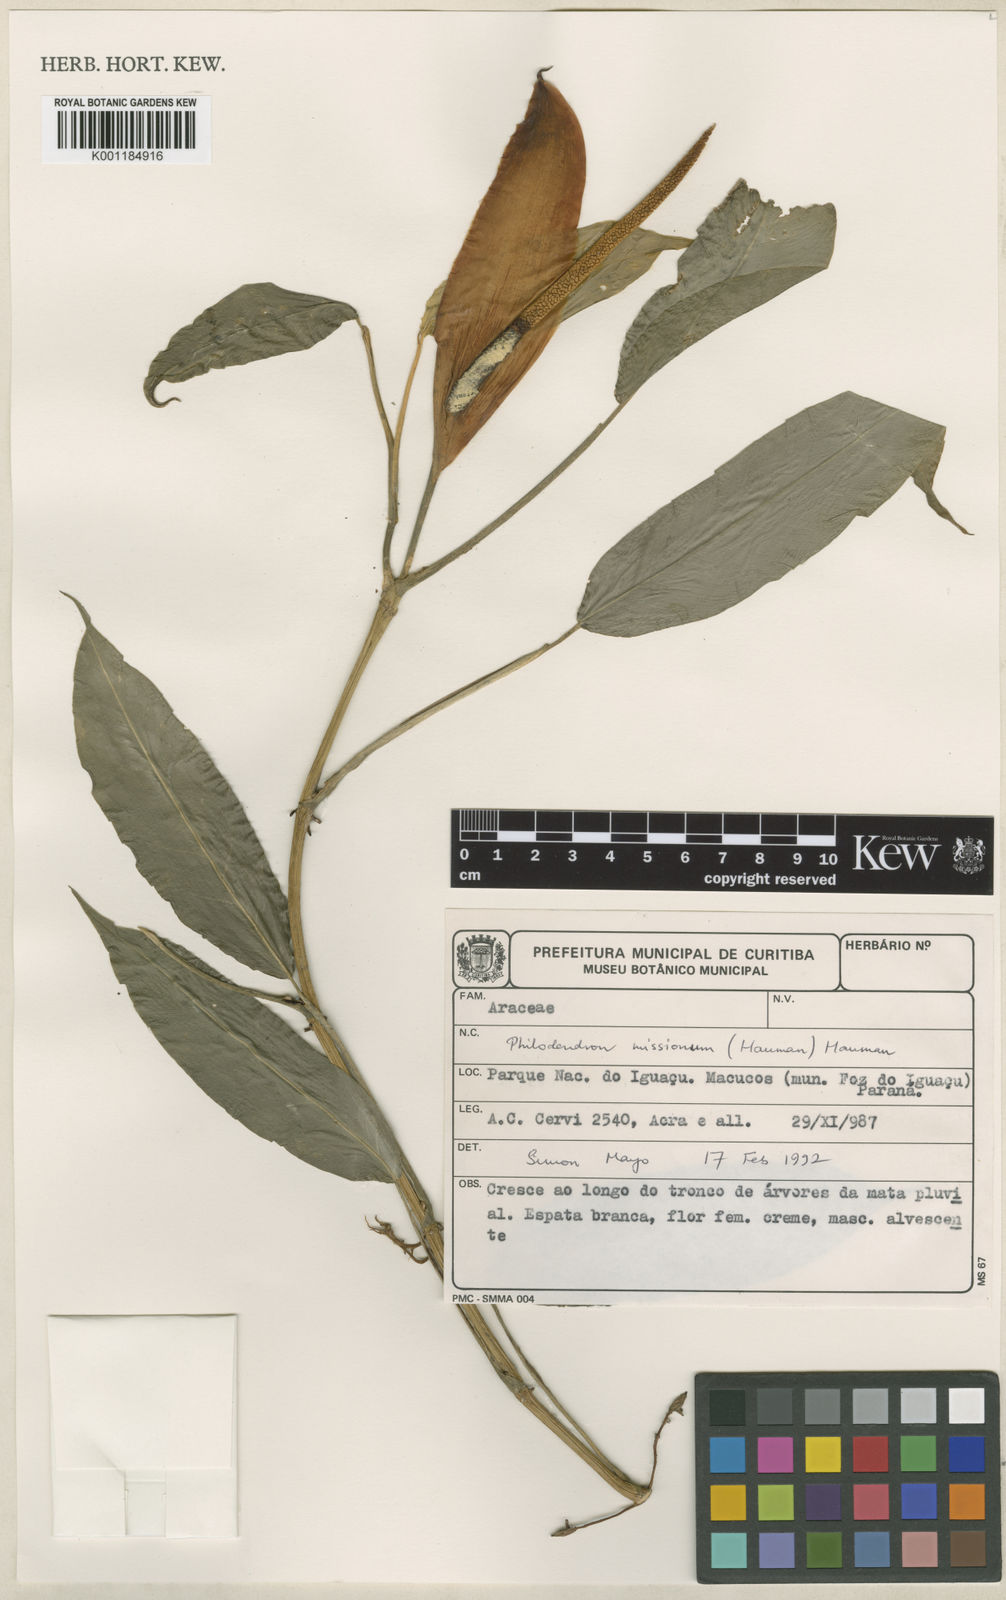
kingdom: Plantae
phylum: Tracheophyta
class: Liliopsida
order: Alismatales
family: Araceae
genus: Philodendron
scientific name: Philodendron missionum
